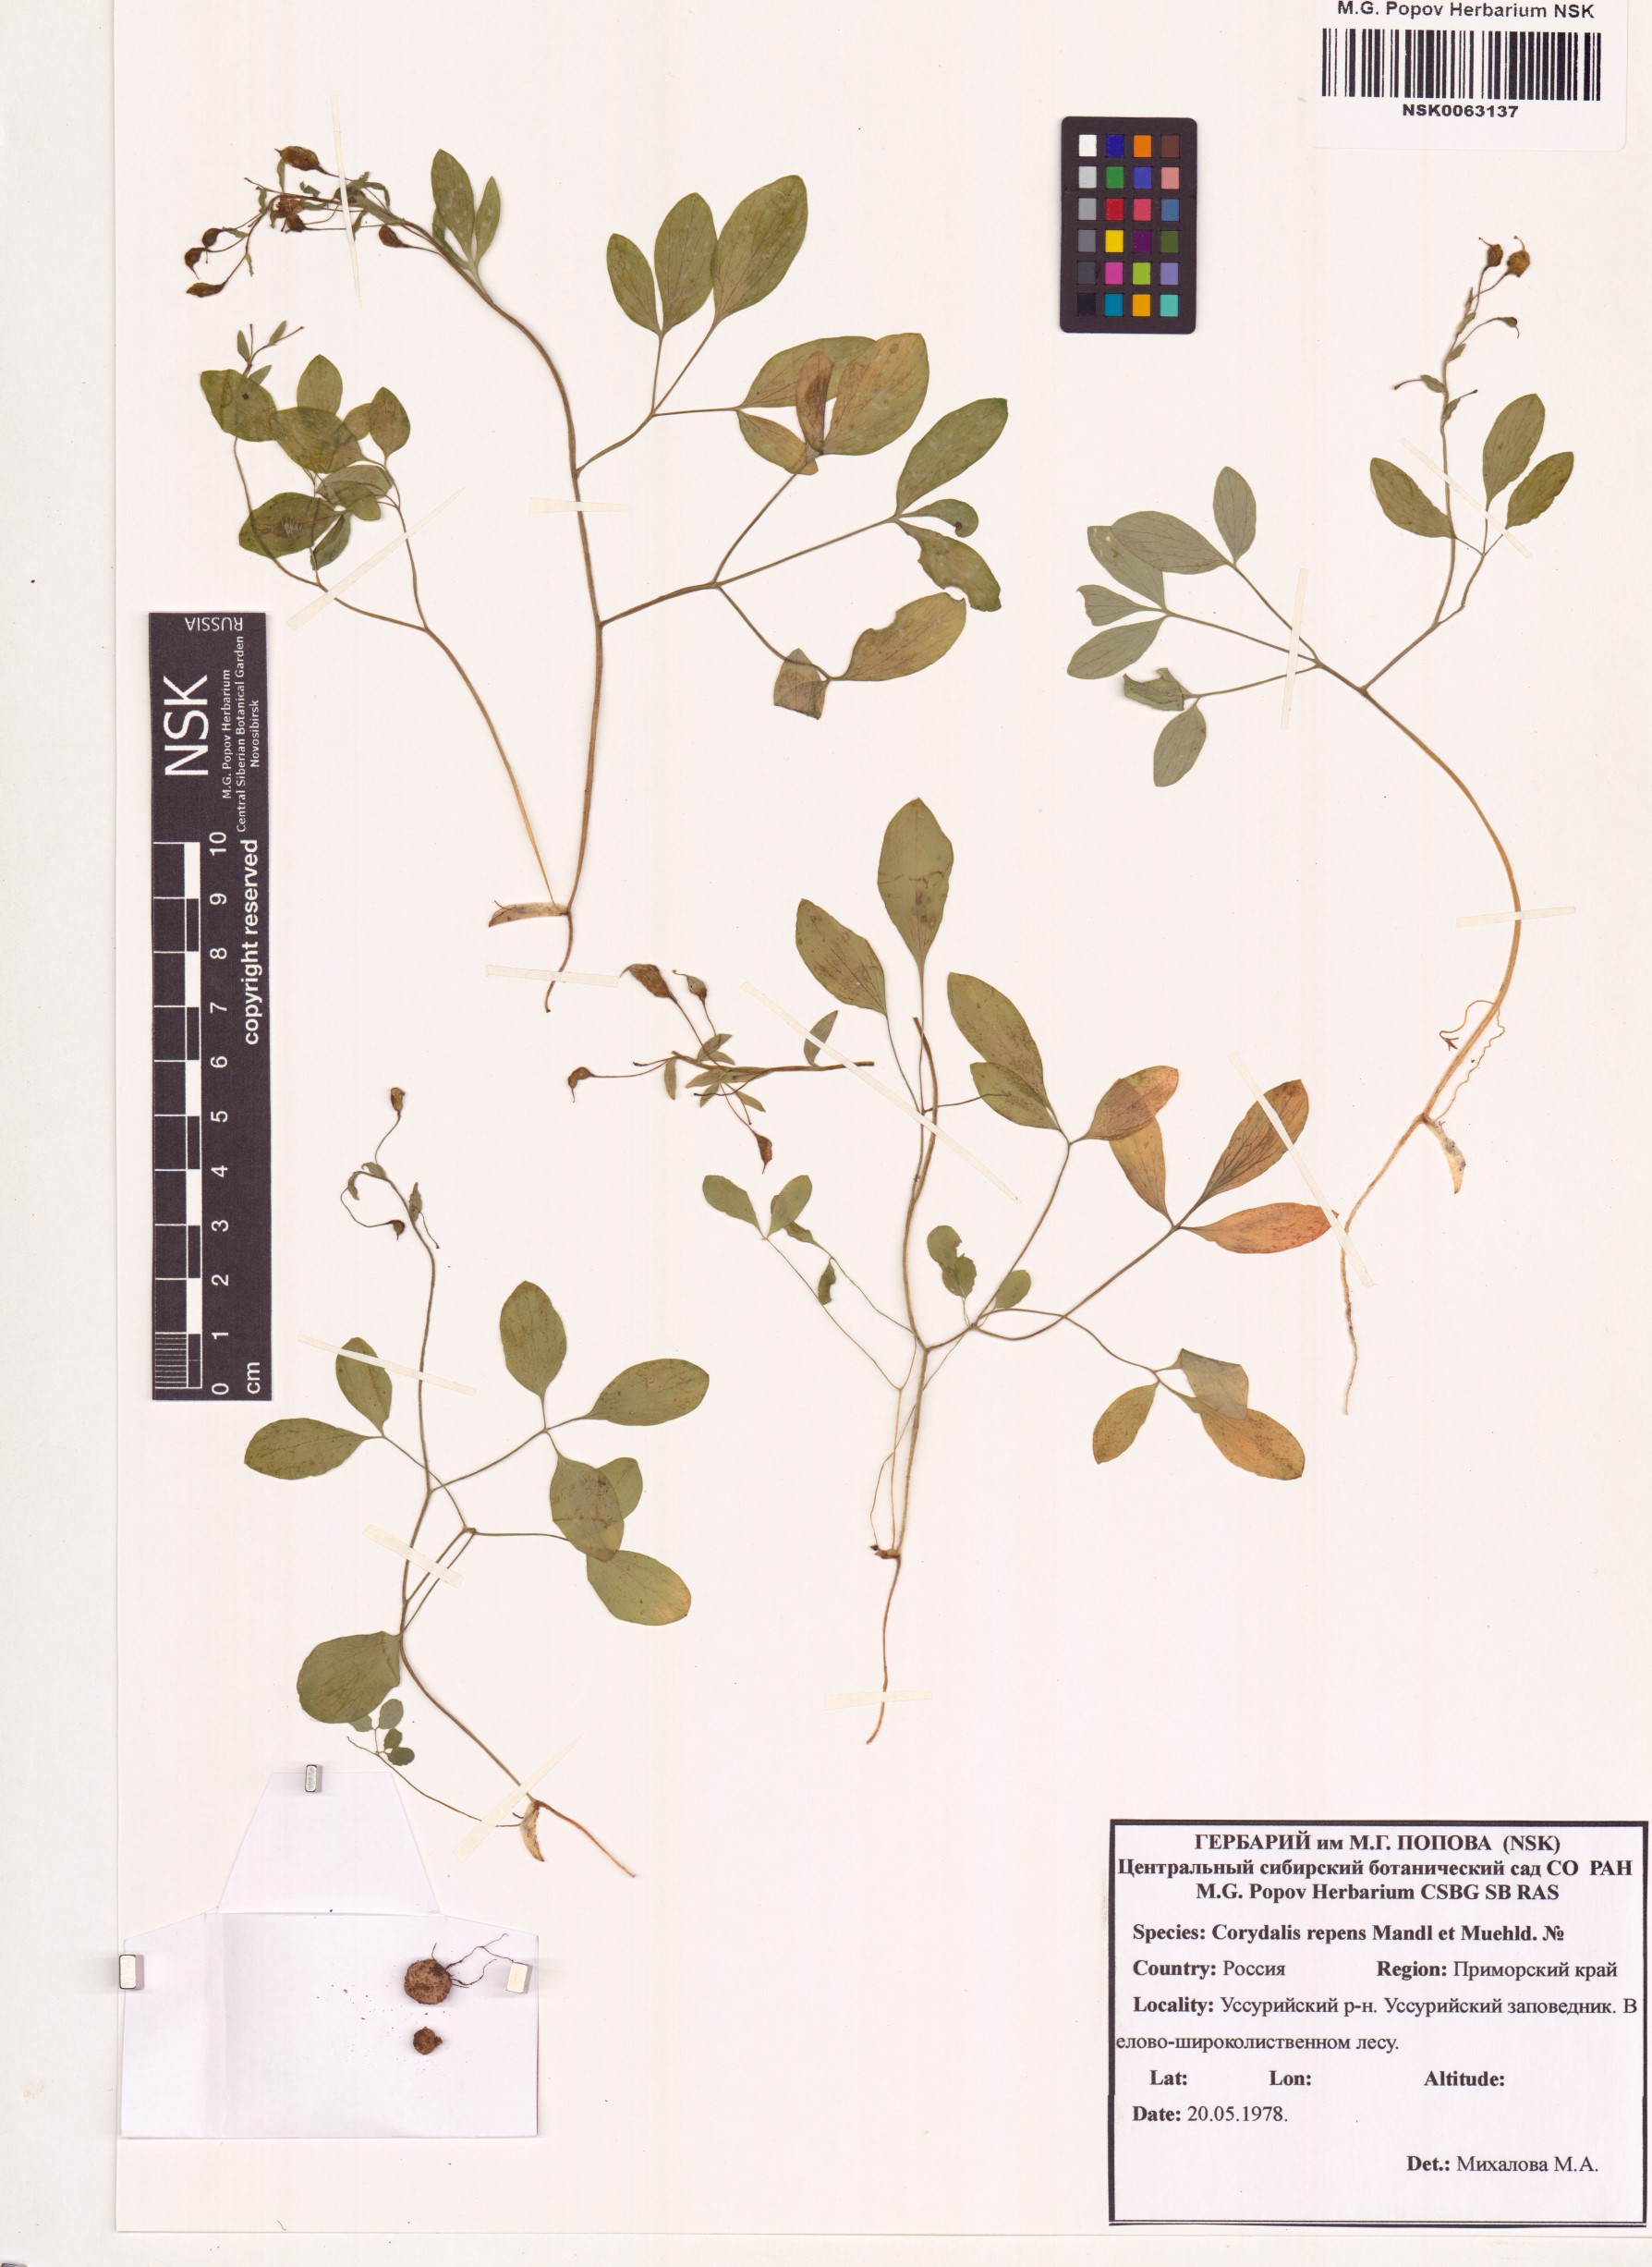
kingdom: Plantae
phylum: Tracheophyta
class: Magnoliopsida
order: Ranunculales
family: Papaveraceae
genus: Corydalis
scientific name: Corydalis repens
